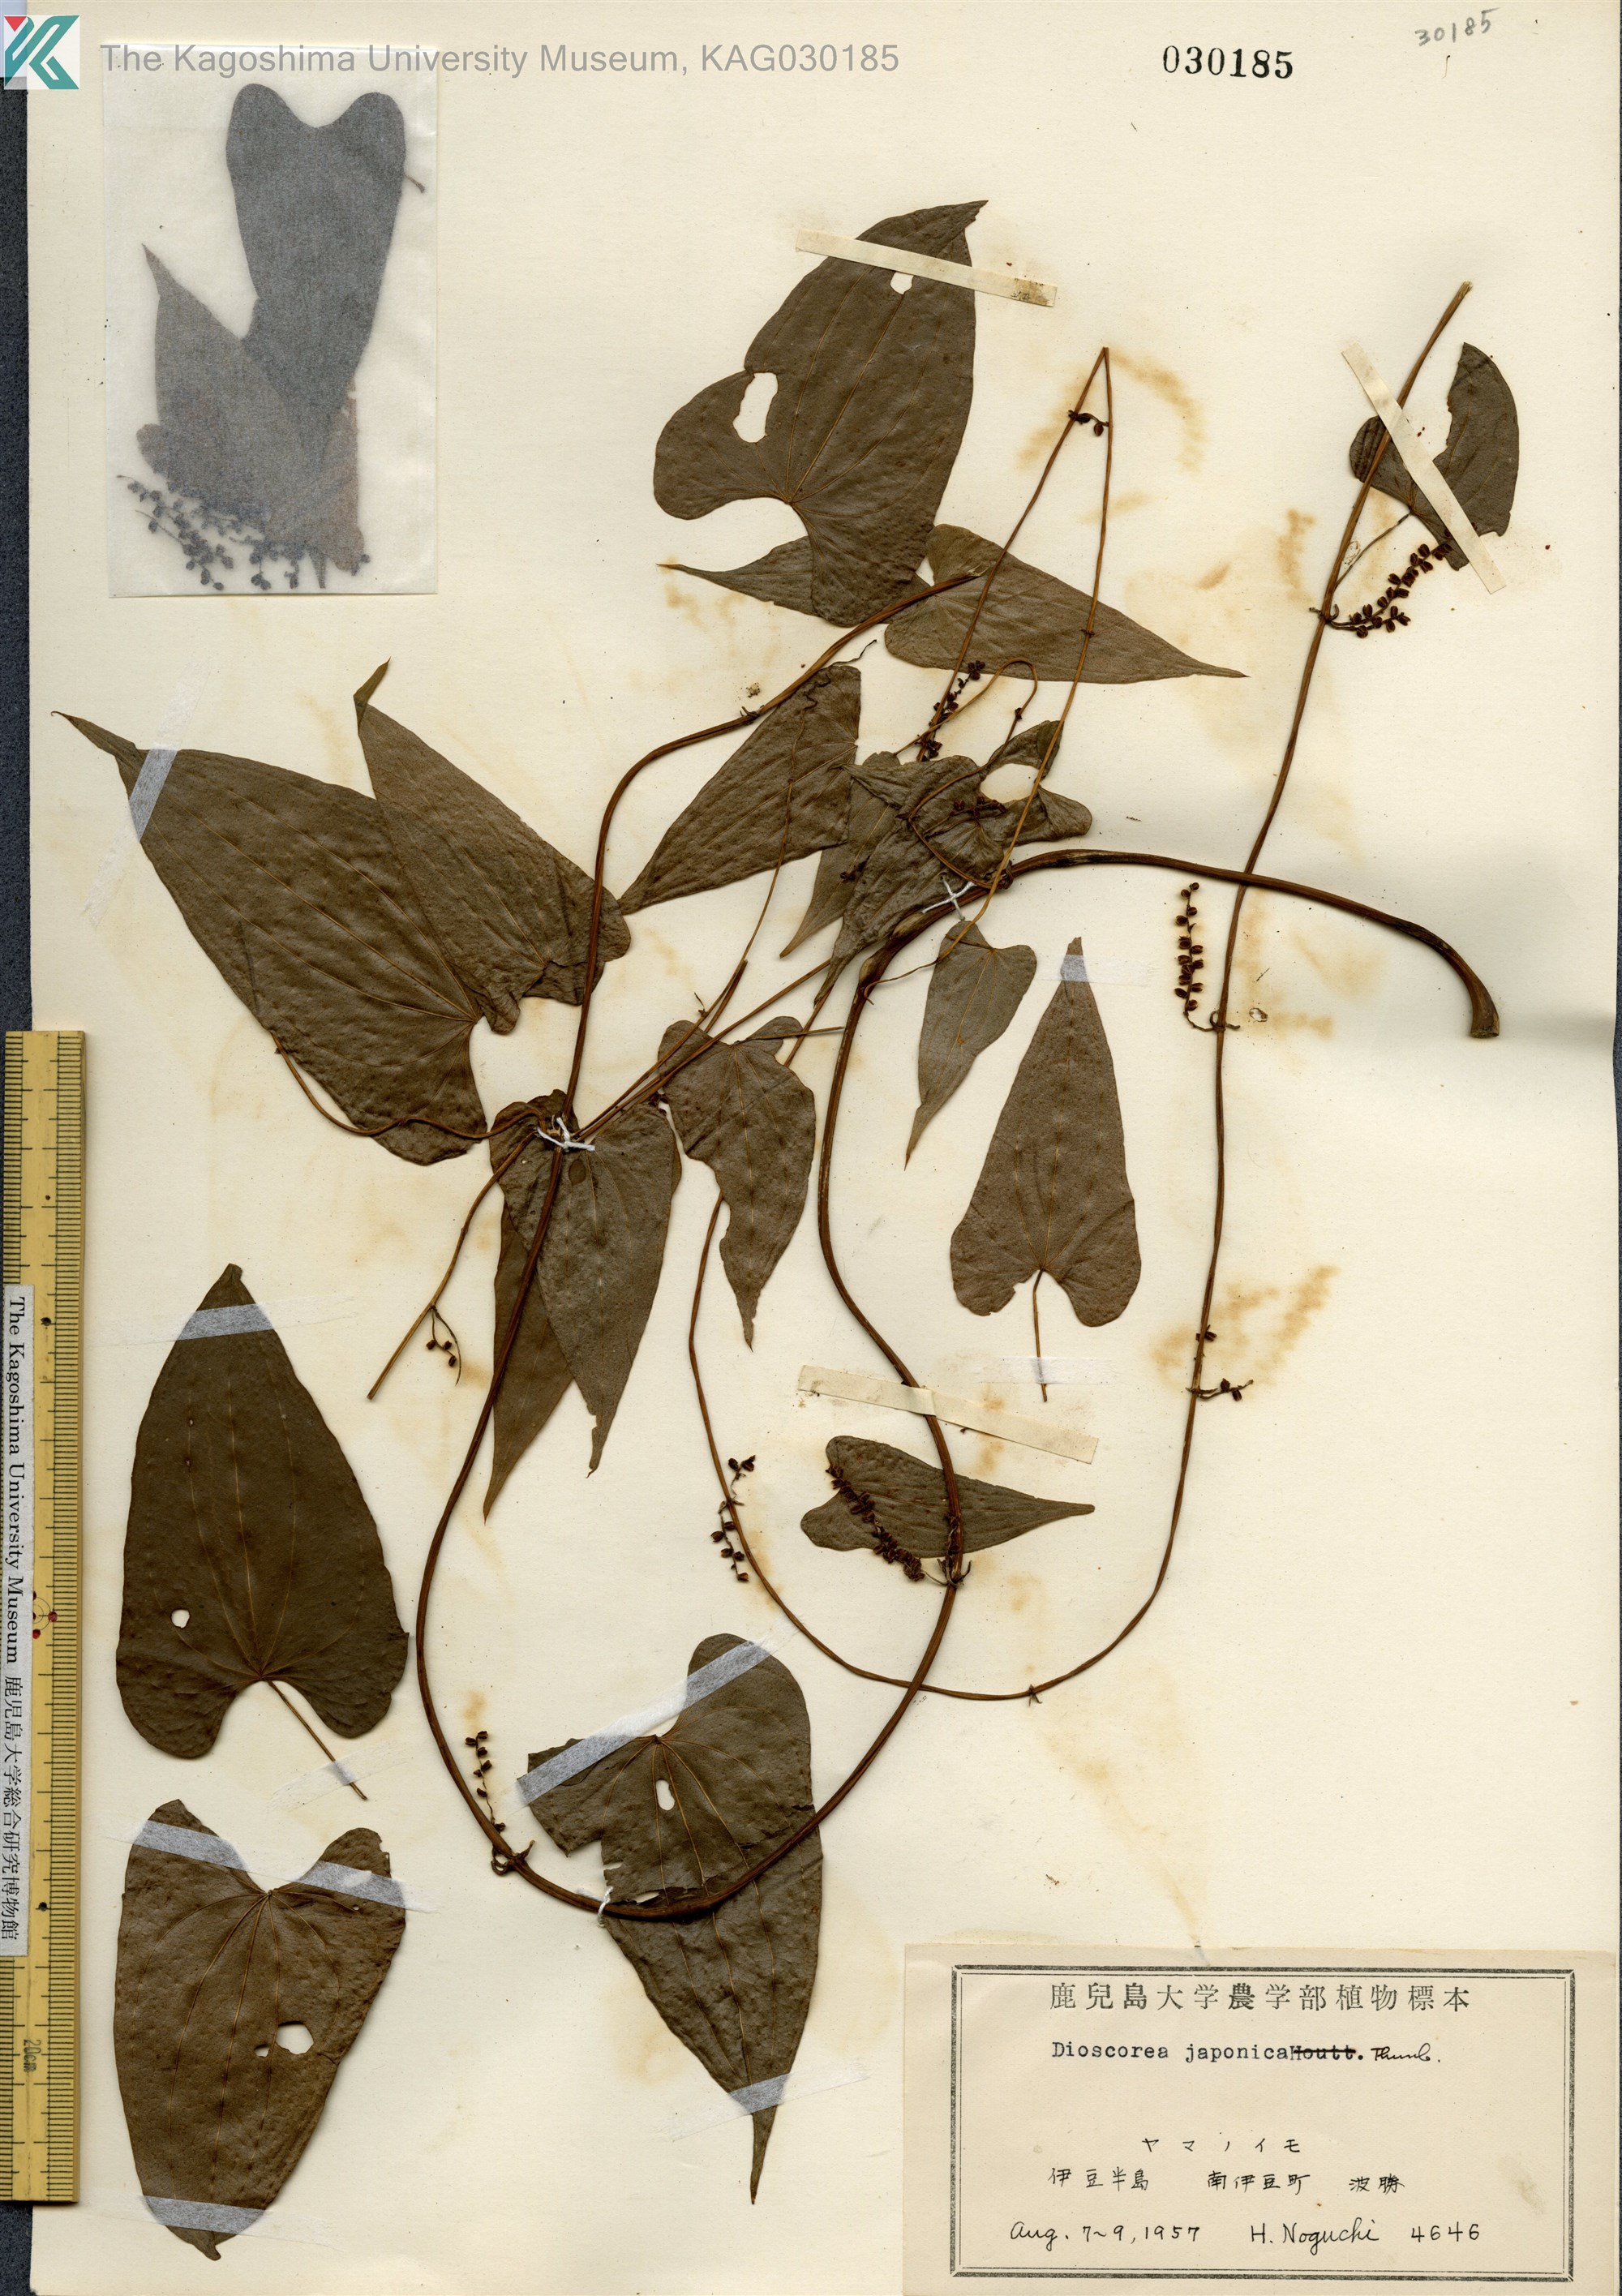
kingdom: Plantae
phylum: Tracheophyta
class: Liliopsida
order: Dioscoreales
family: Dioscoreaceae
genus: Dioscorea
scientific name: Dioscorea japonica
